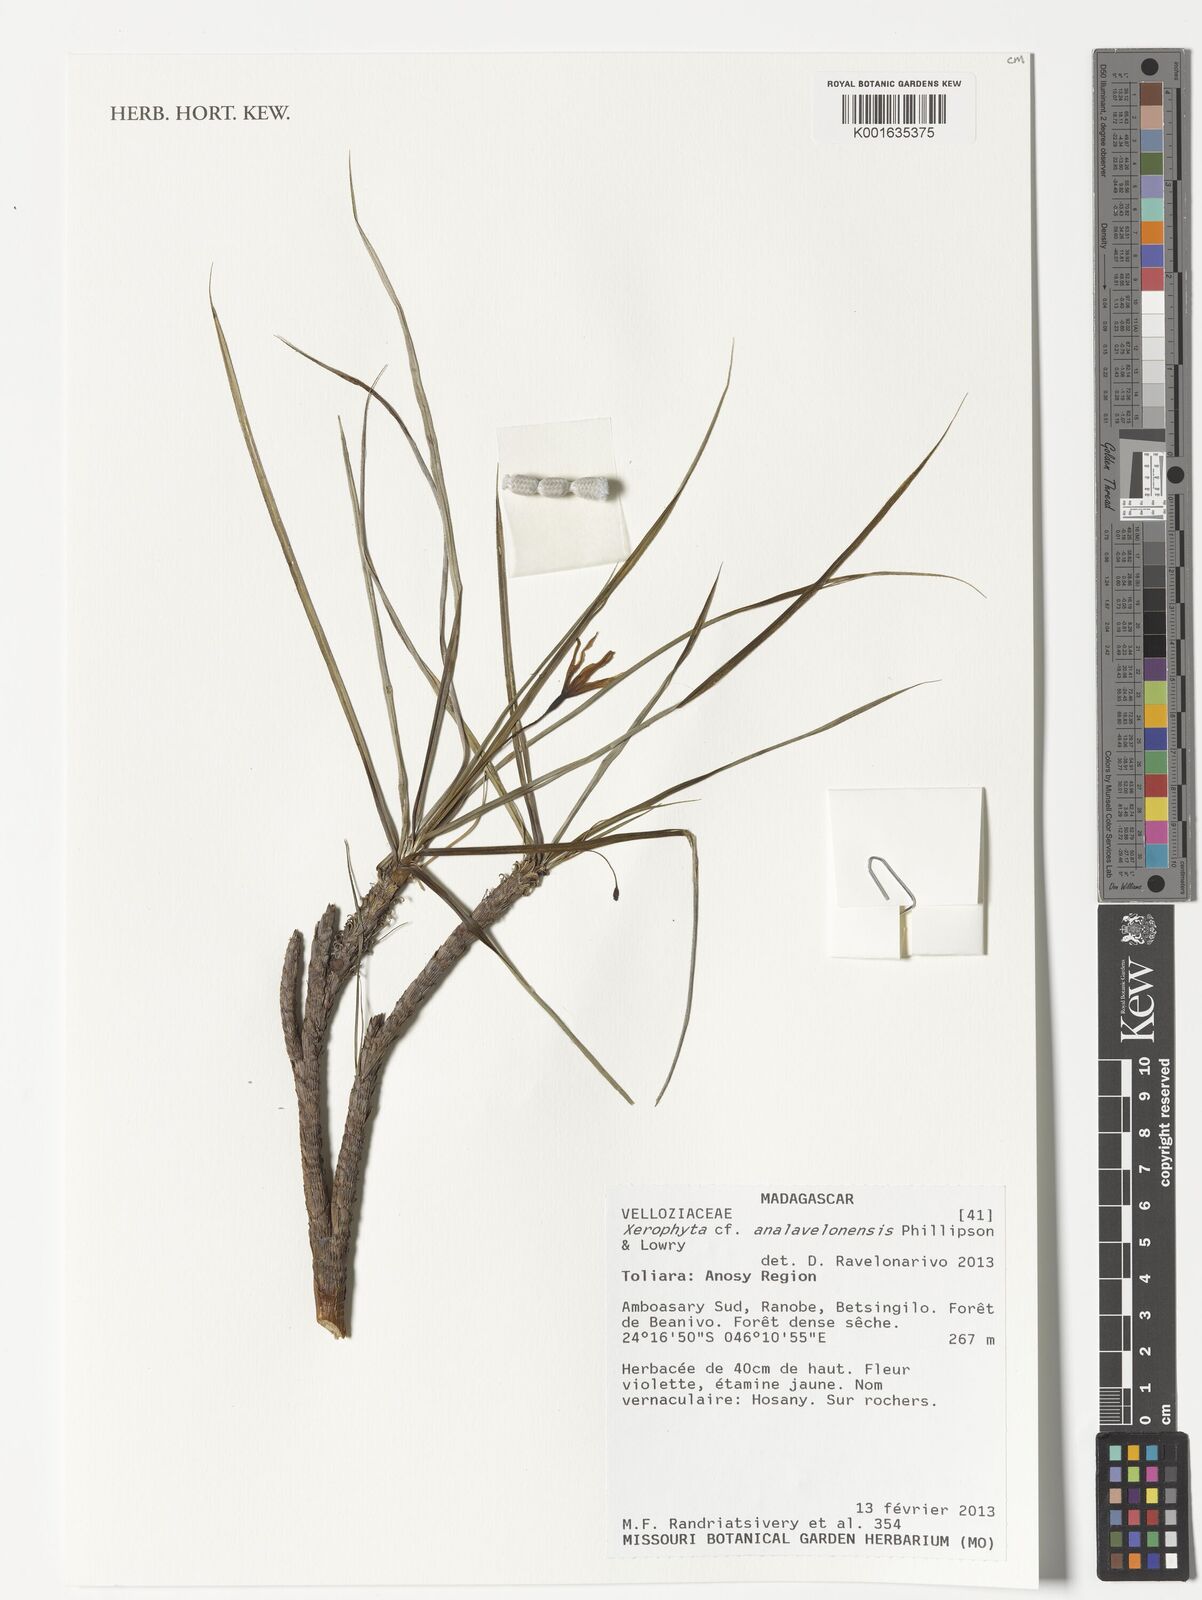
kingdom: Plantae
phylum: Tracheophyta
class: Liliopsida
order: Pandanales
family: Velloziaceae
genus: Xerophyta
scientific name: Xerophyta
